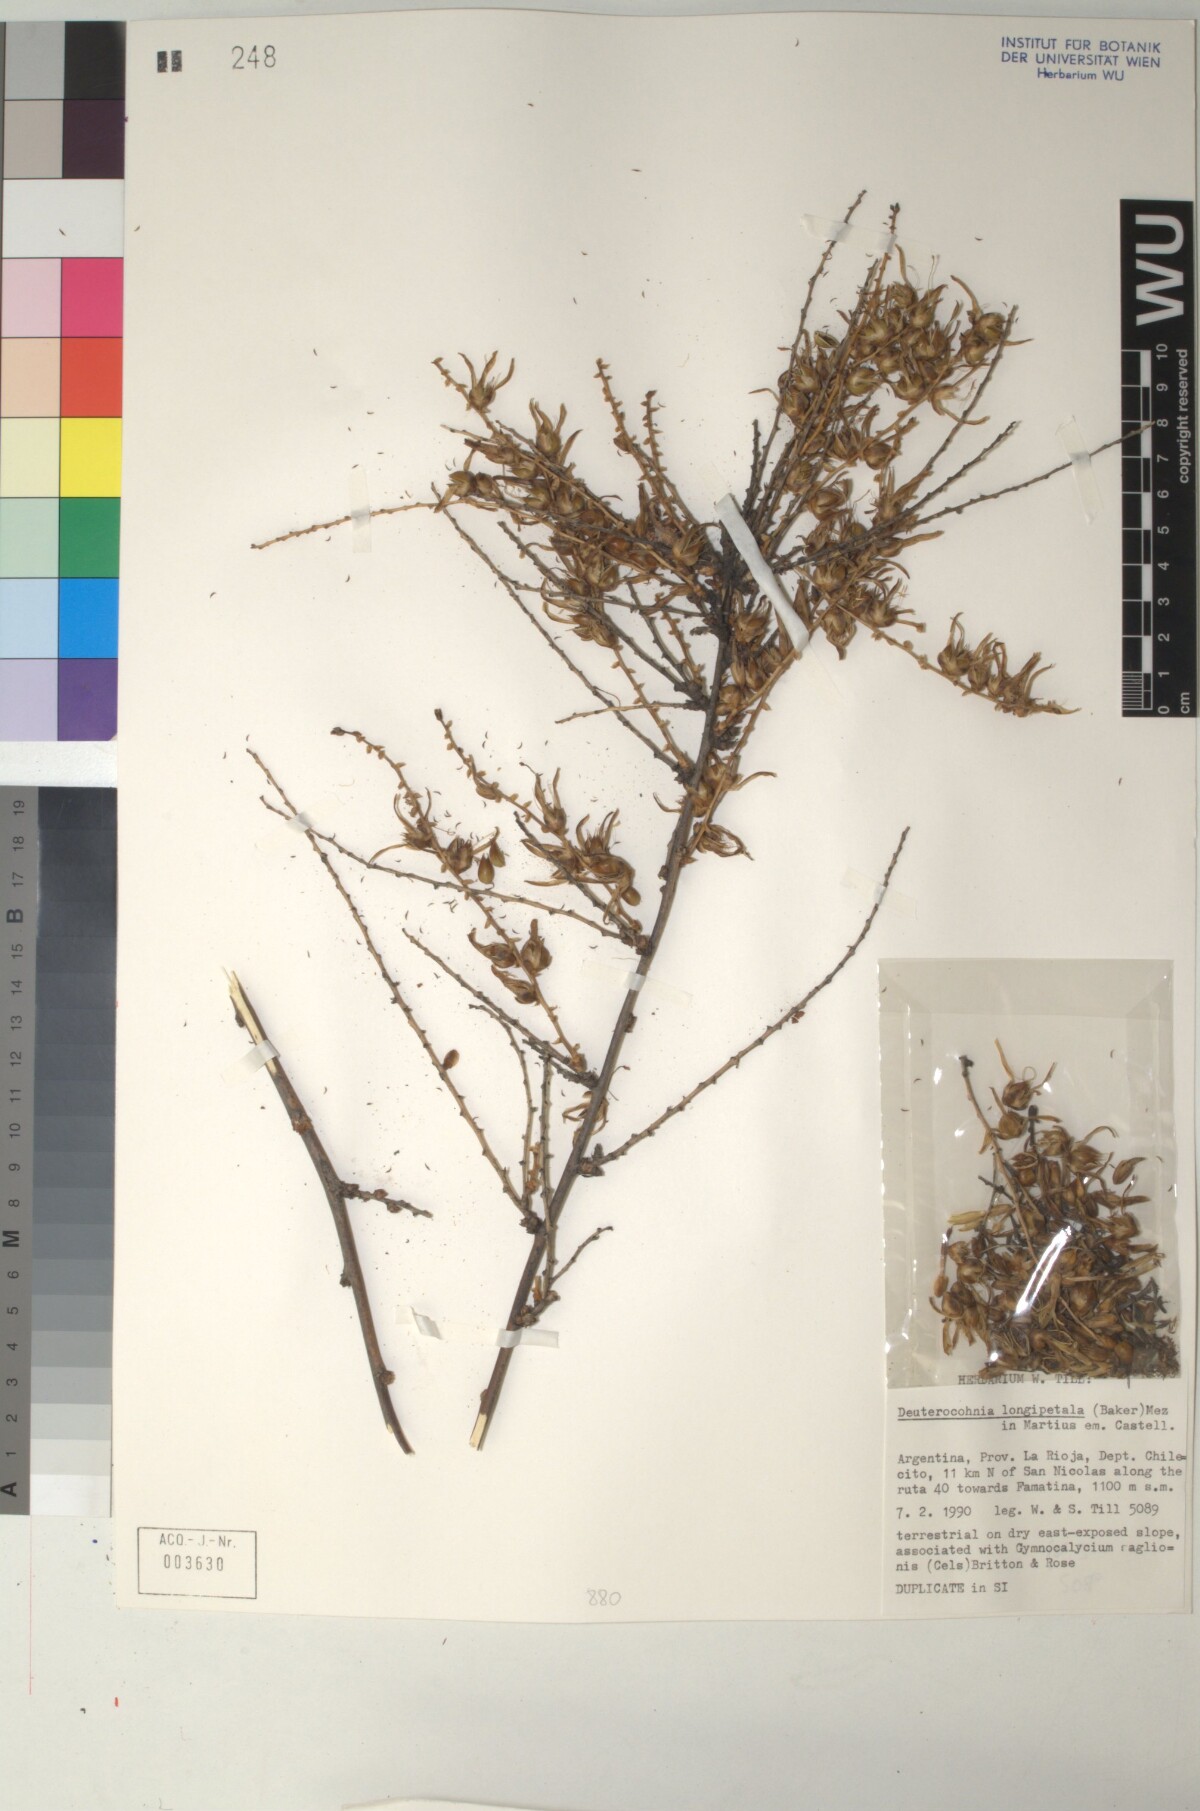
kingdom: Plantae
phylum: Tracheophyta
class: Liliopsida
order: Poales
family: Bromeliaceae
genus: Deuterocohnia
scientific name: Deuterocohnia longipetala
